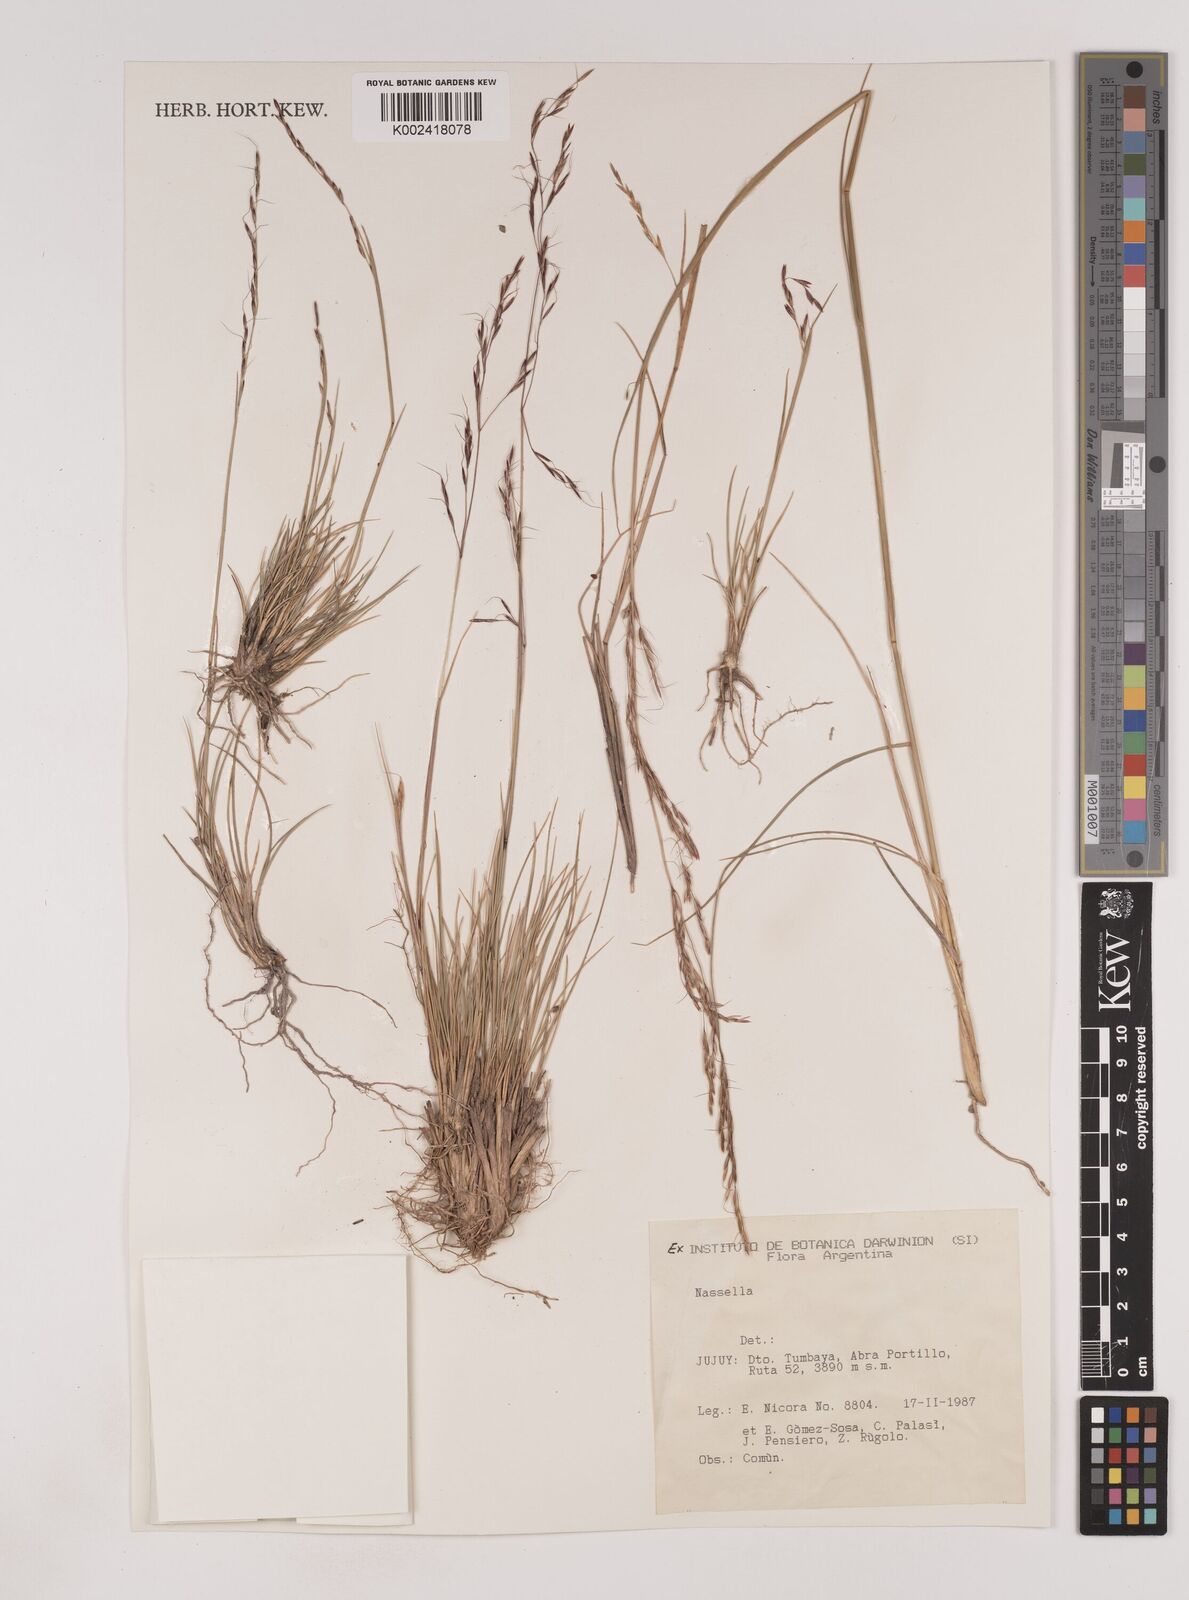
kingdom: Plantae
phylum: Tracheophyta
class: Liliopsida
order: Poales
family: Poaceae
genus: Nassella
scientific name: Nassella
